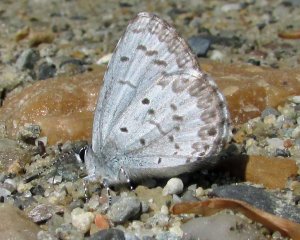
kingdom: Animalia
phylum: Arthropoda
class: Insecta
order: Lepidoptera
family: Lycaenidae
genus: Celastrina
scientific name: Celastrina lucia
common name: Northern Spring Azure
